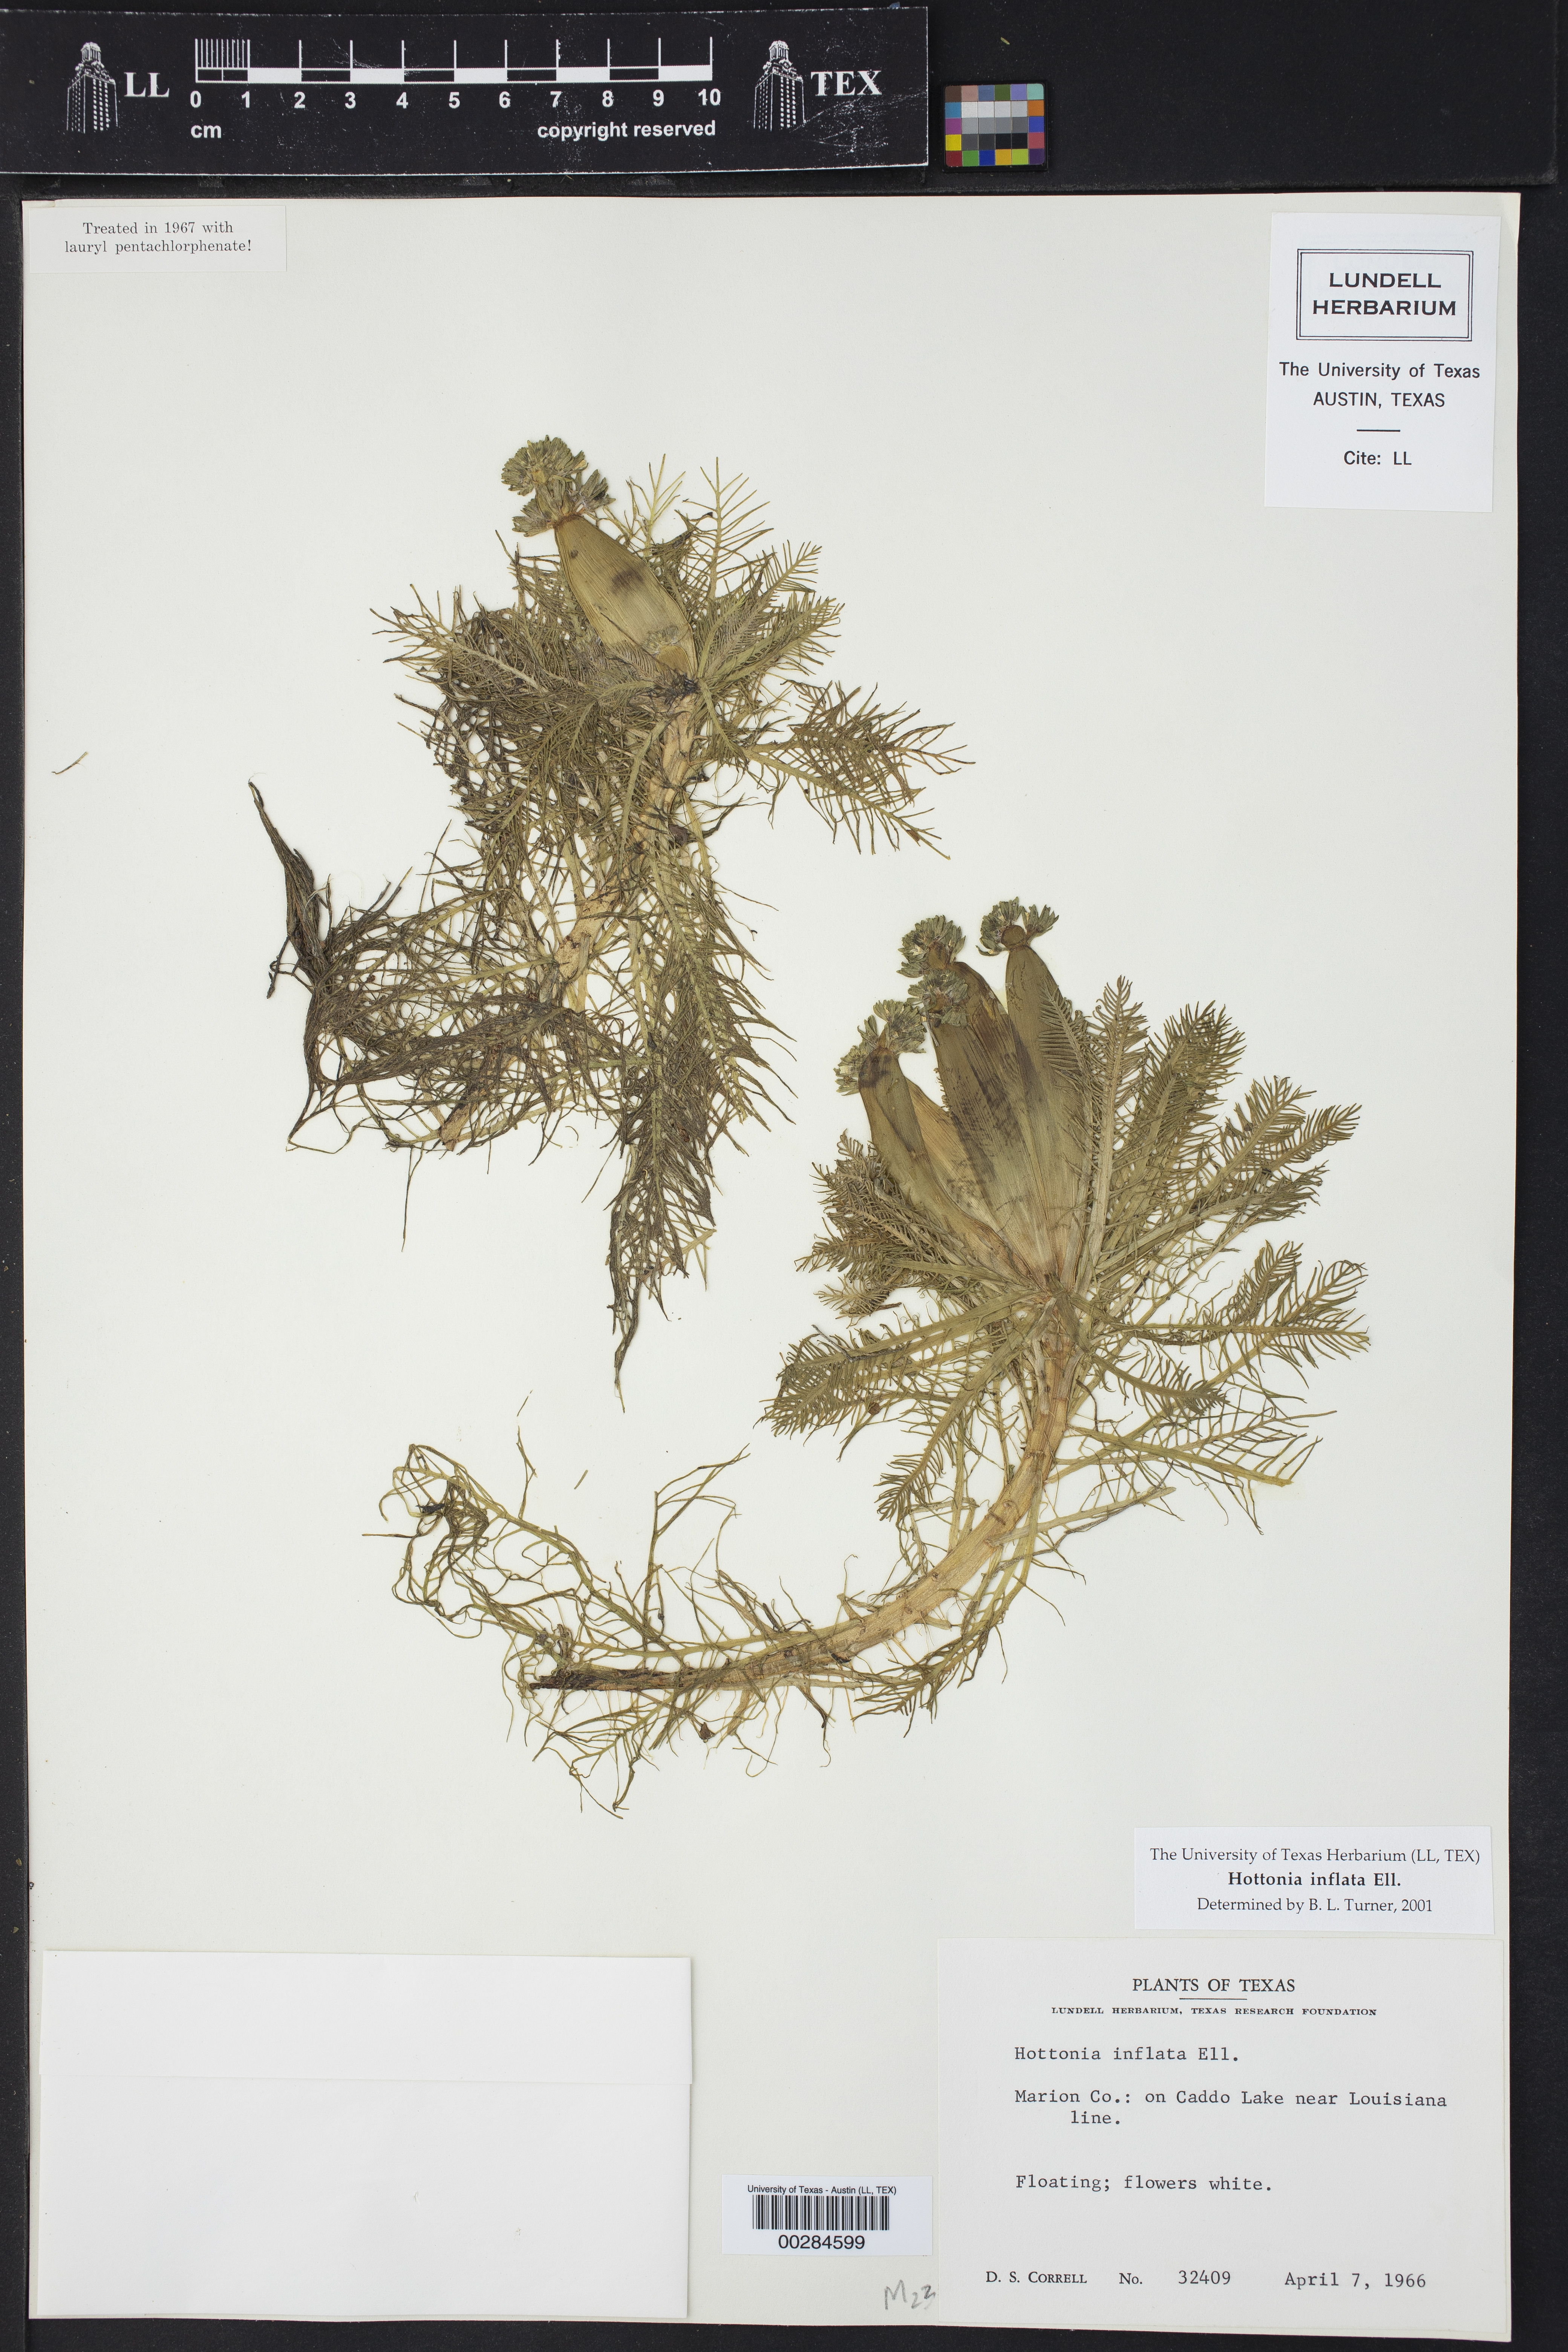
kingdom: Plantae
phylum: Tracheophyta
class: Magnoliopsida
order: Ericales
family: Primulaceae
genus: Hottonia
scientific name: Hottonia inflata
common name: American featherfoil
